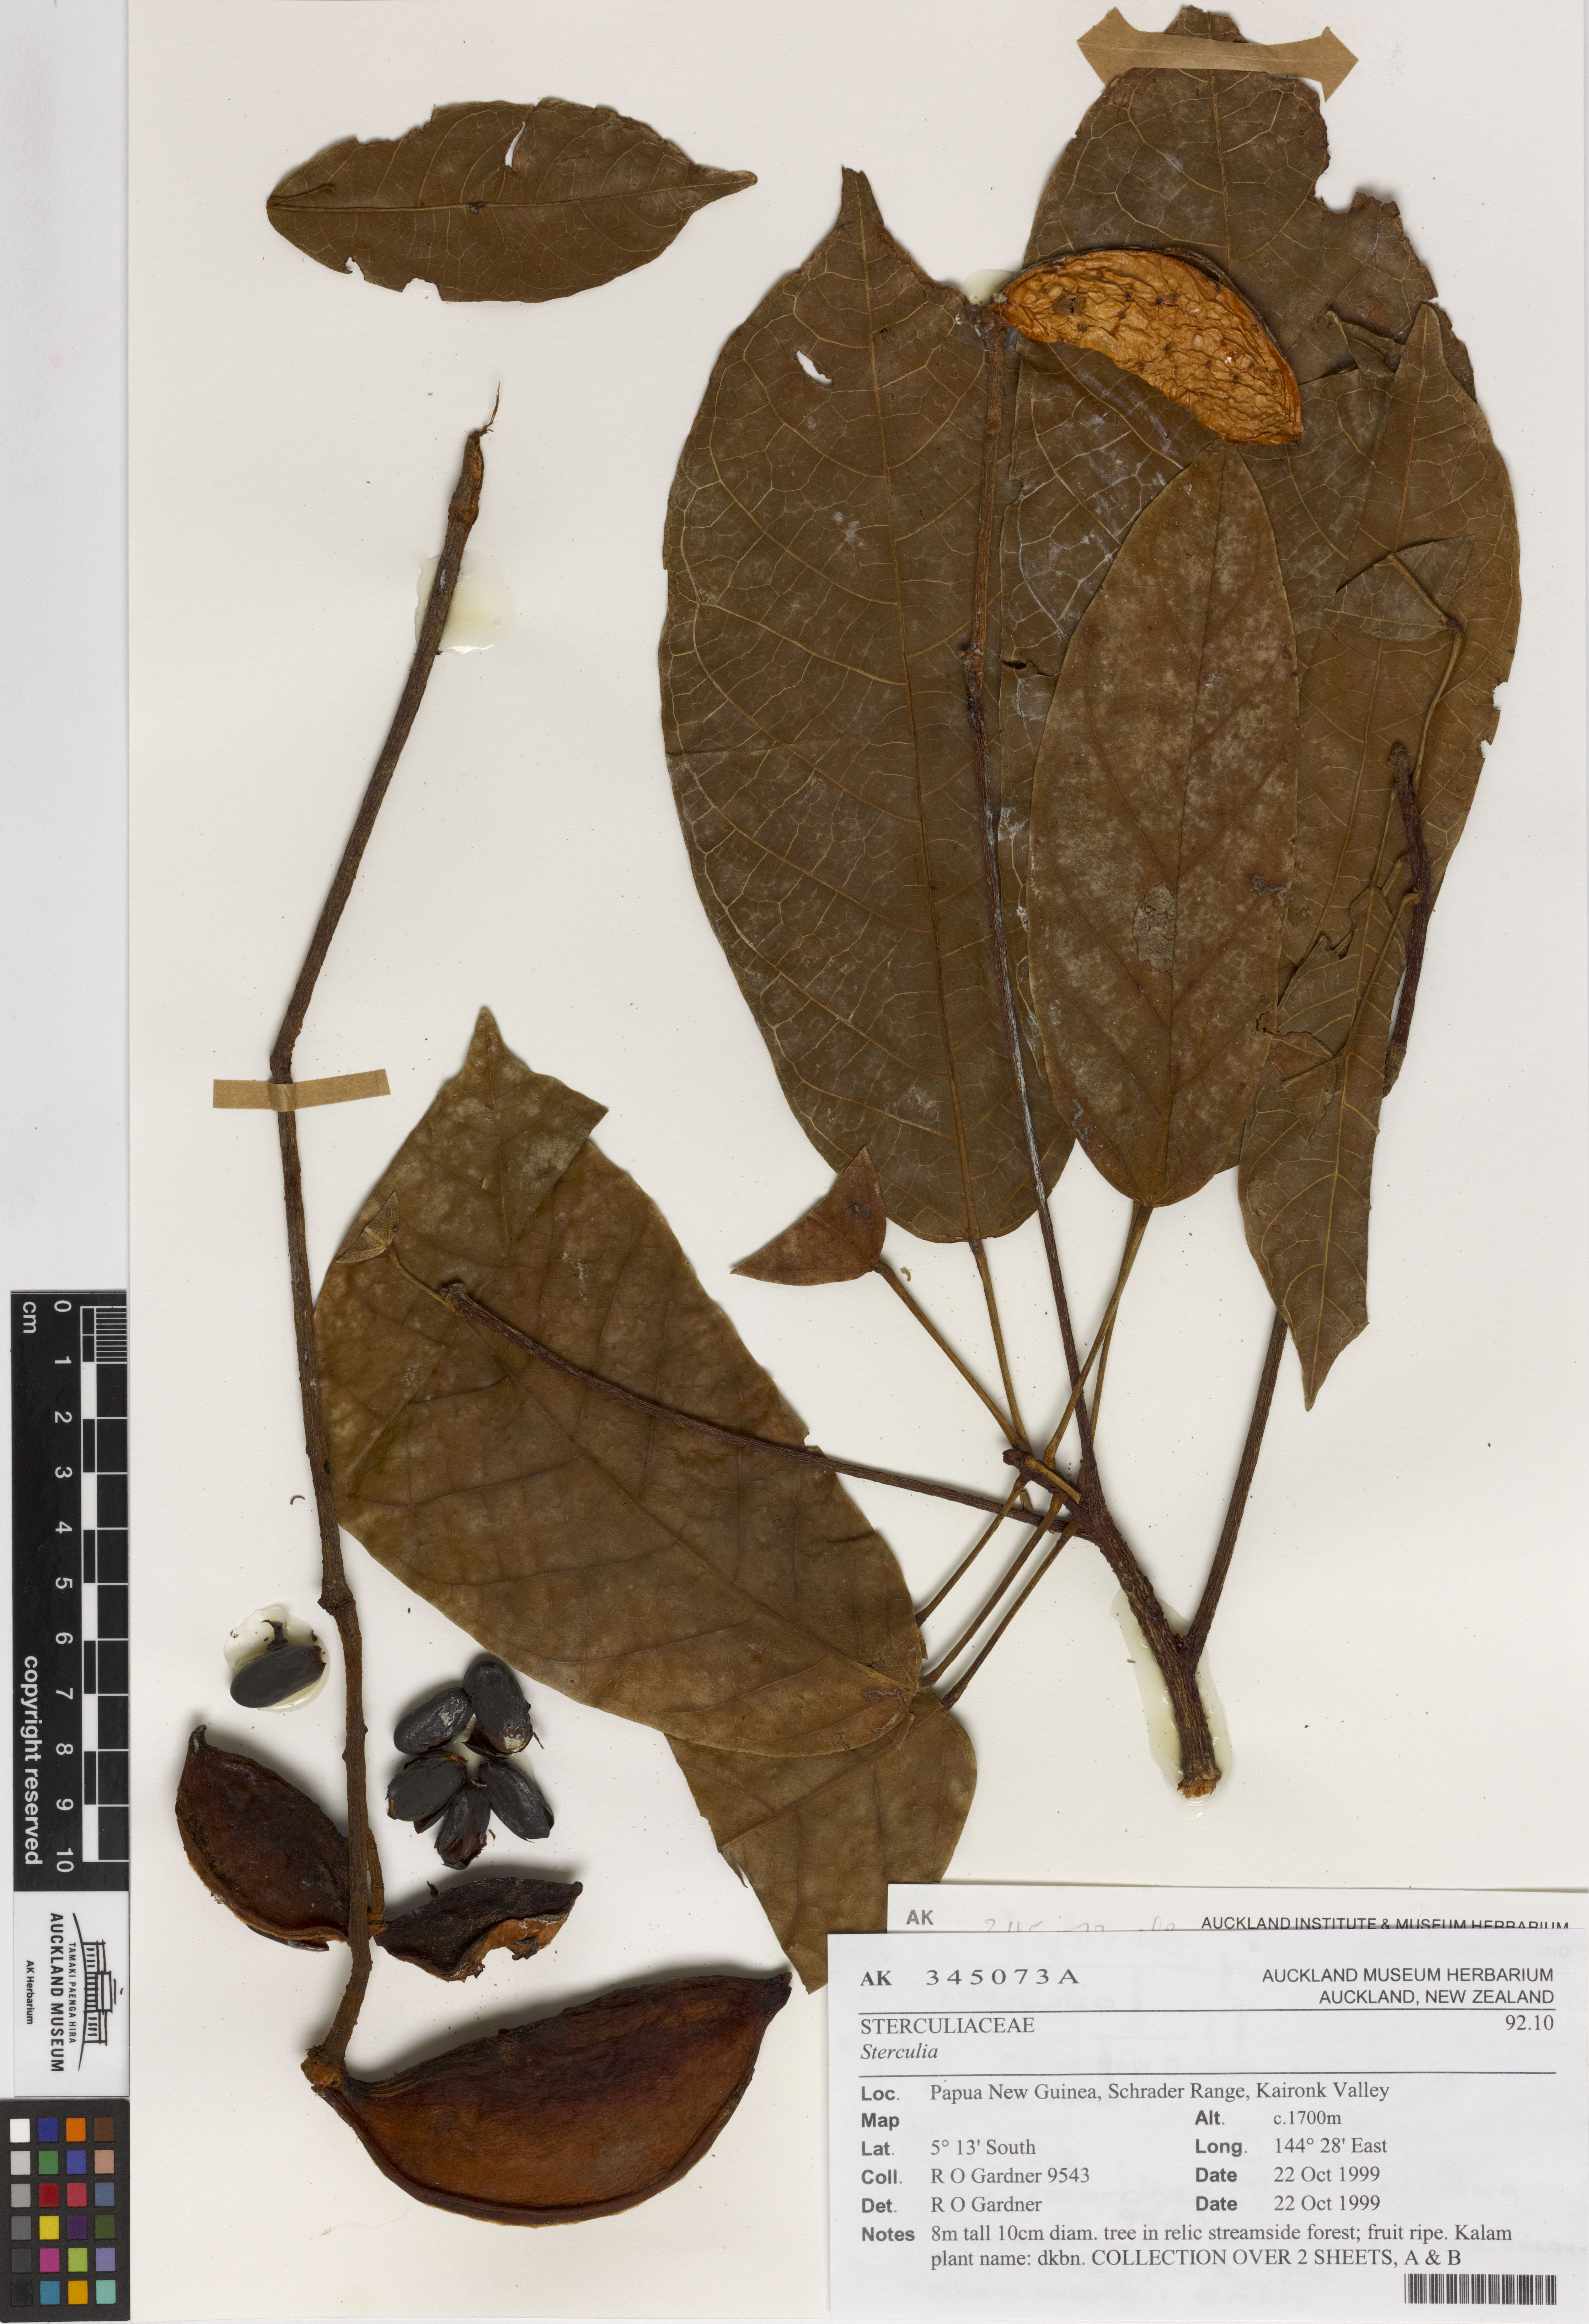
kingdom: Plantae
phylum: Tracheophyta
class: Magnoliopsida
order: Malvales
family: Malvaceae
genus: Sterculia
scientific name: Sterculia
